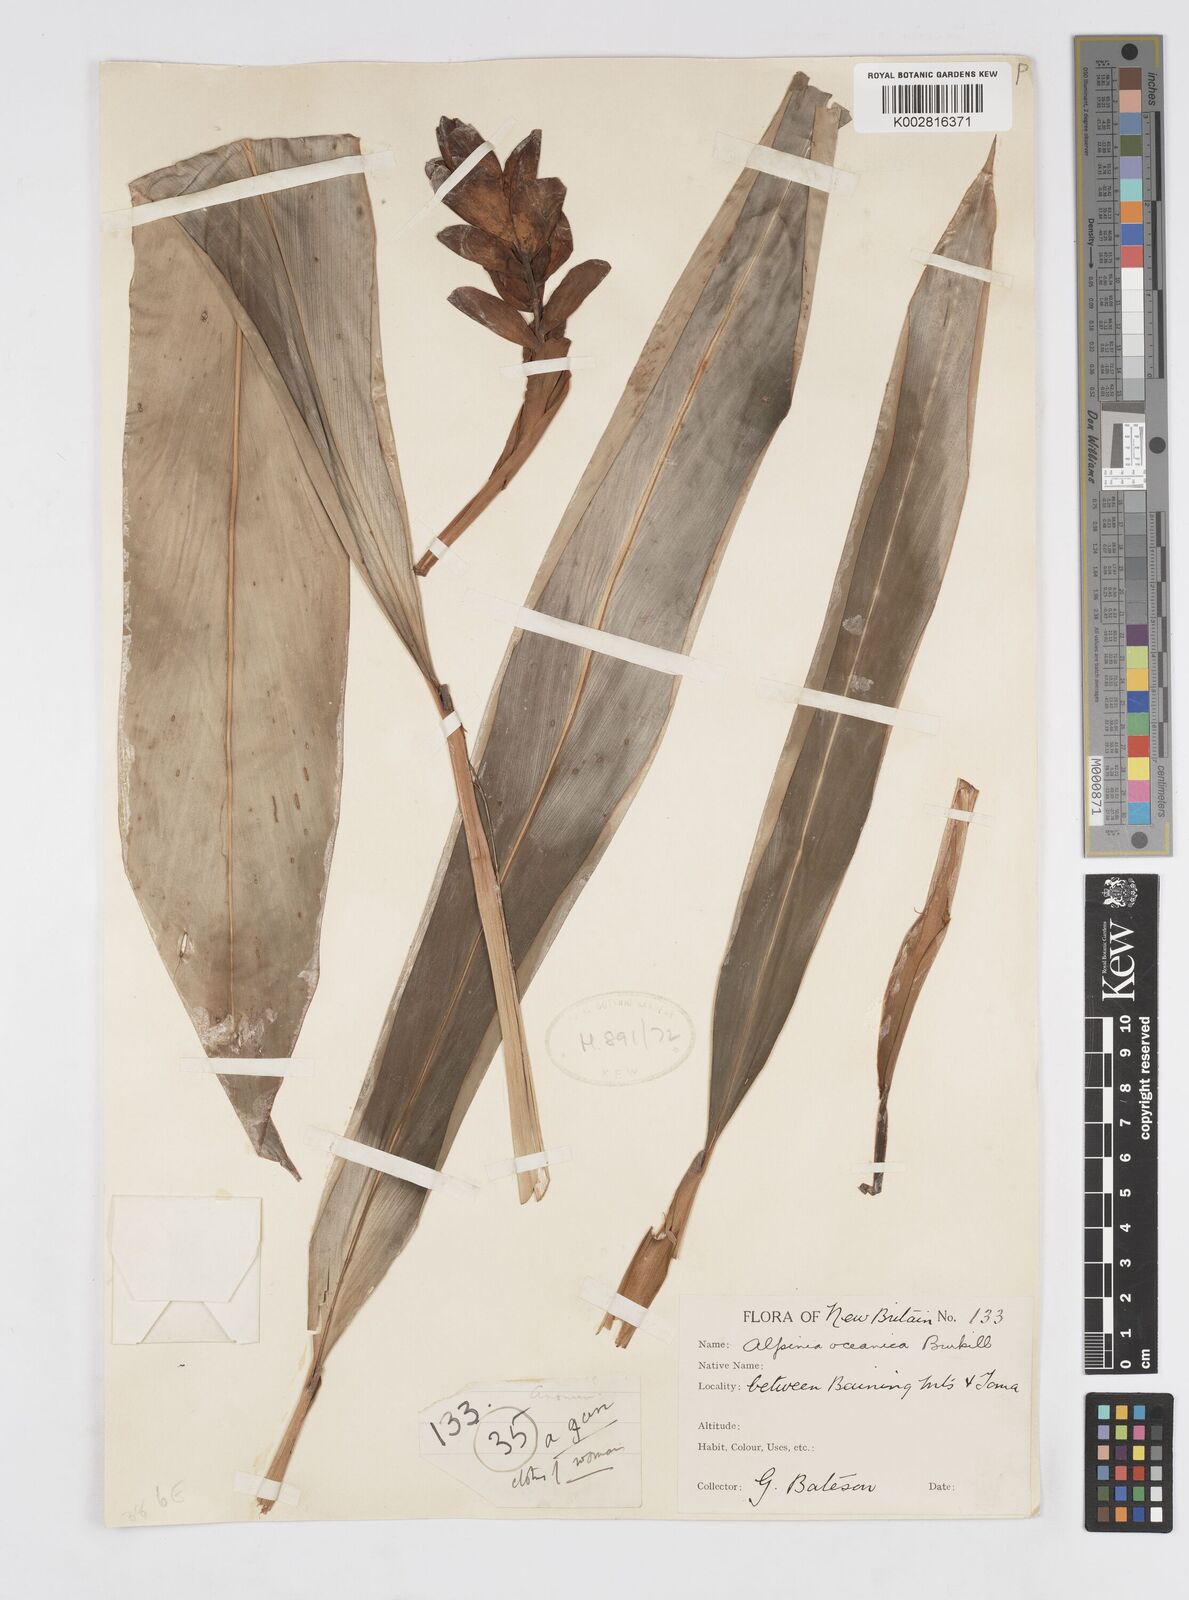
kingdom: Plantae
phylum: Tracheophyta
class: Liliopsida
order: Zingiberales
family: Zingiberaceae
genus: Alpinia
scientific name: Alpinia oceanica
